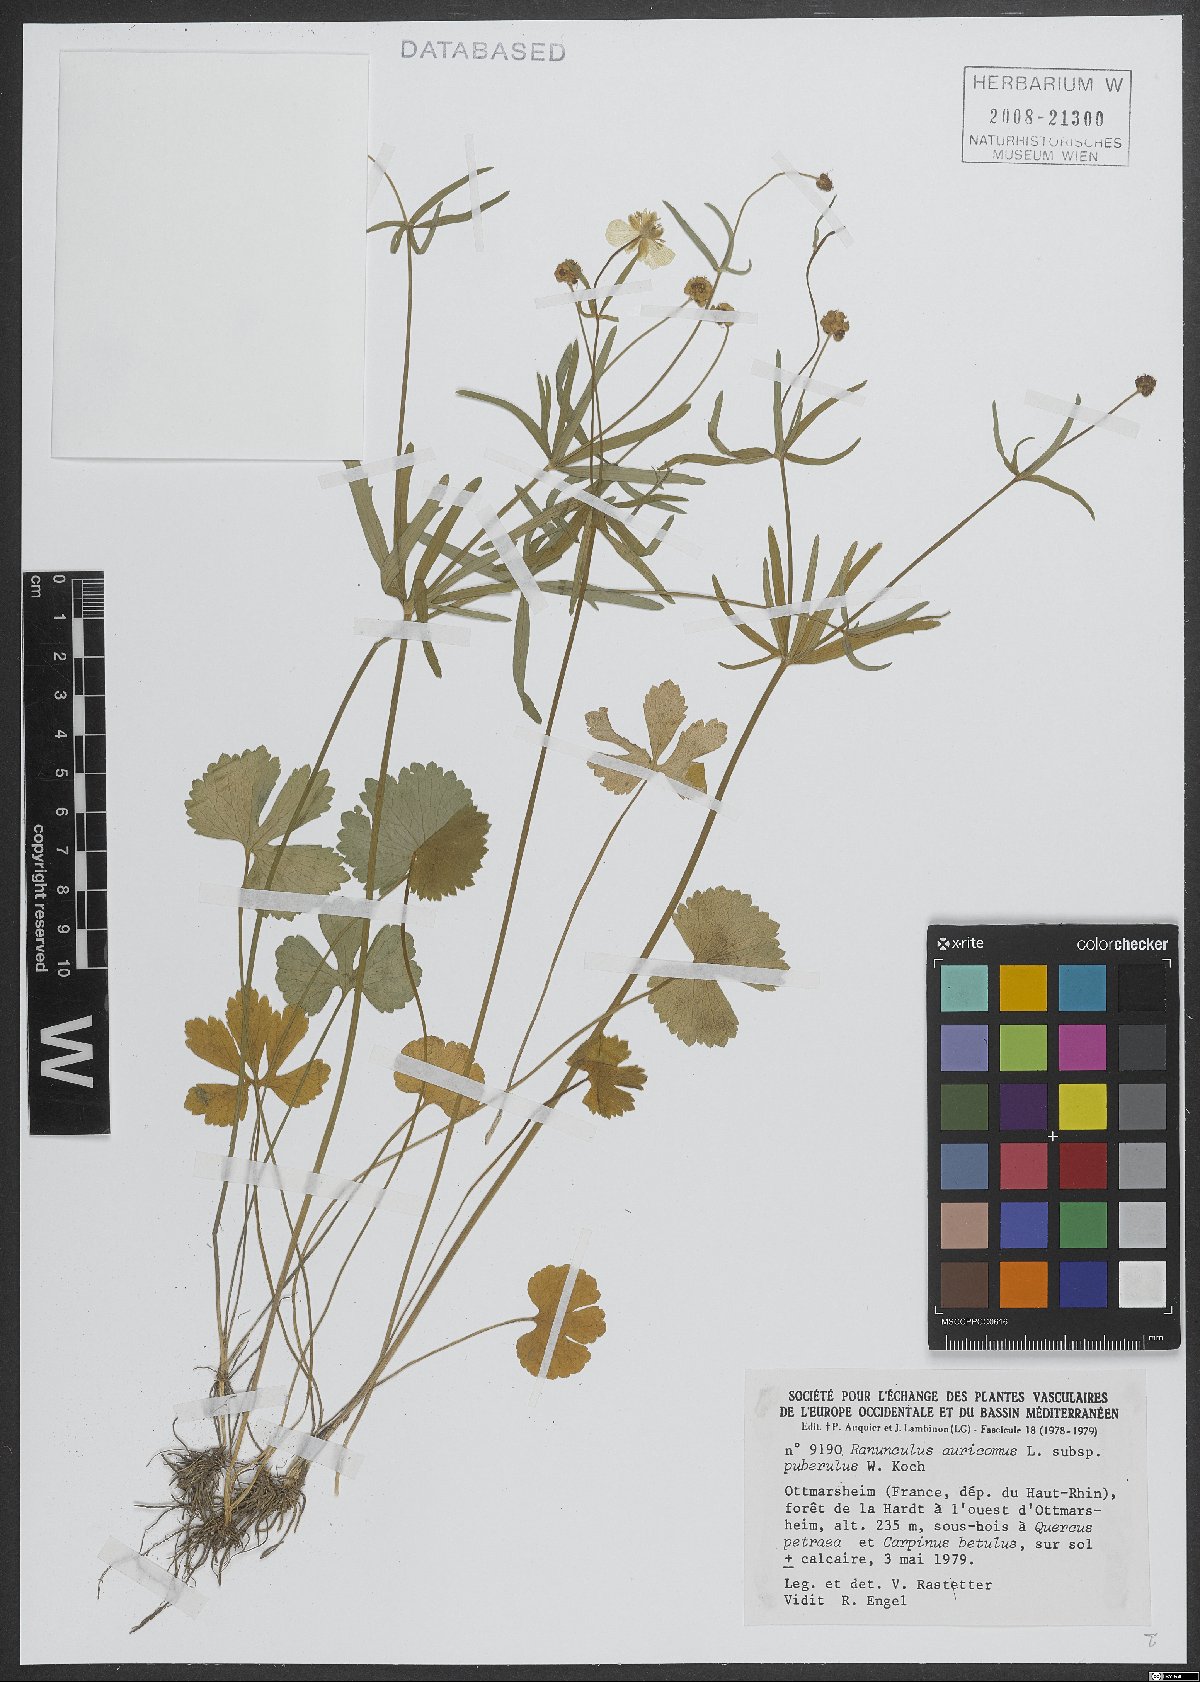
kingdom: Plantae
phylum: Tracheophyta
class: Magnoliopsida
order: Ranunculales
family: Ranunculaceae
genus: Ranunculus
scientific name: Ranunculus puberulus
